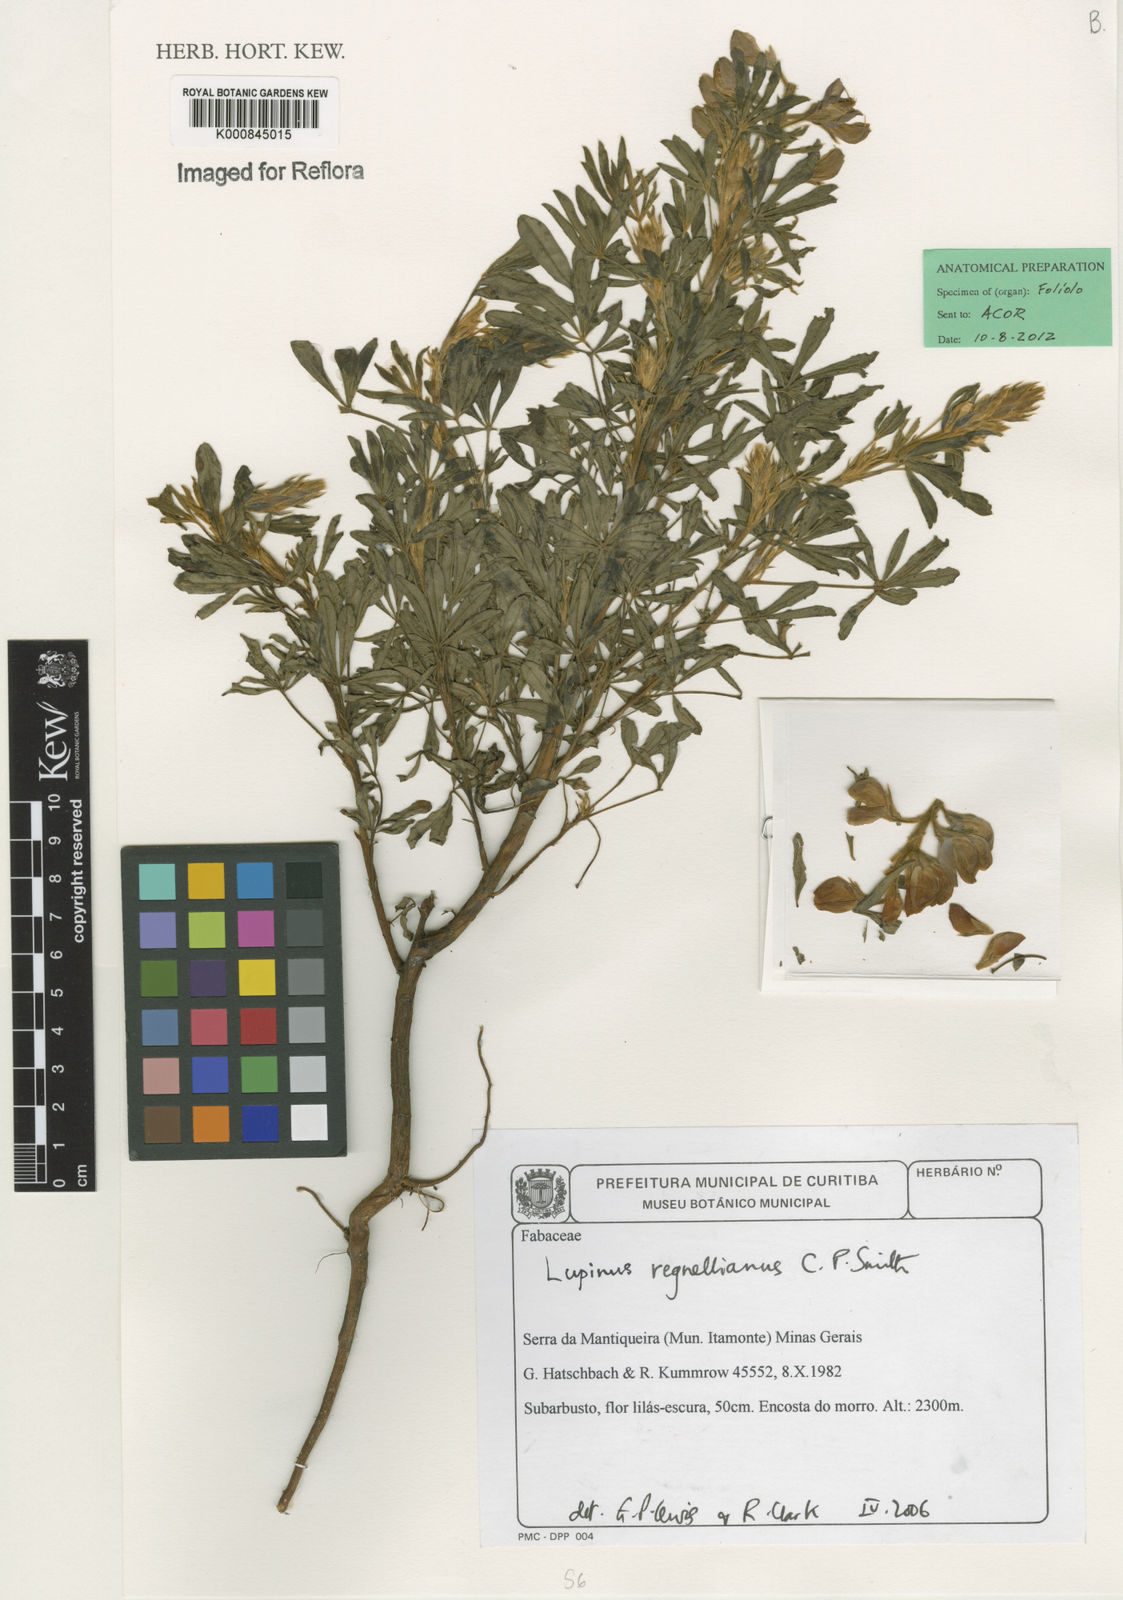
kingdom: Plantae
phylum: Tracheophyta
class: Magnoliopsida
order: Fabales
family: Fabaceae
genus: Lupinus
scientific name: Lupinus regnellianus
